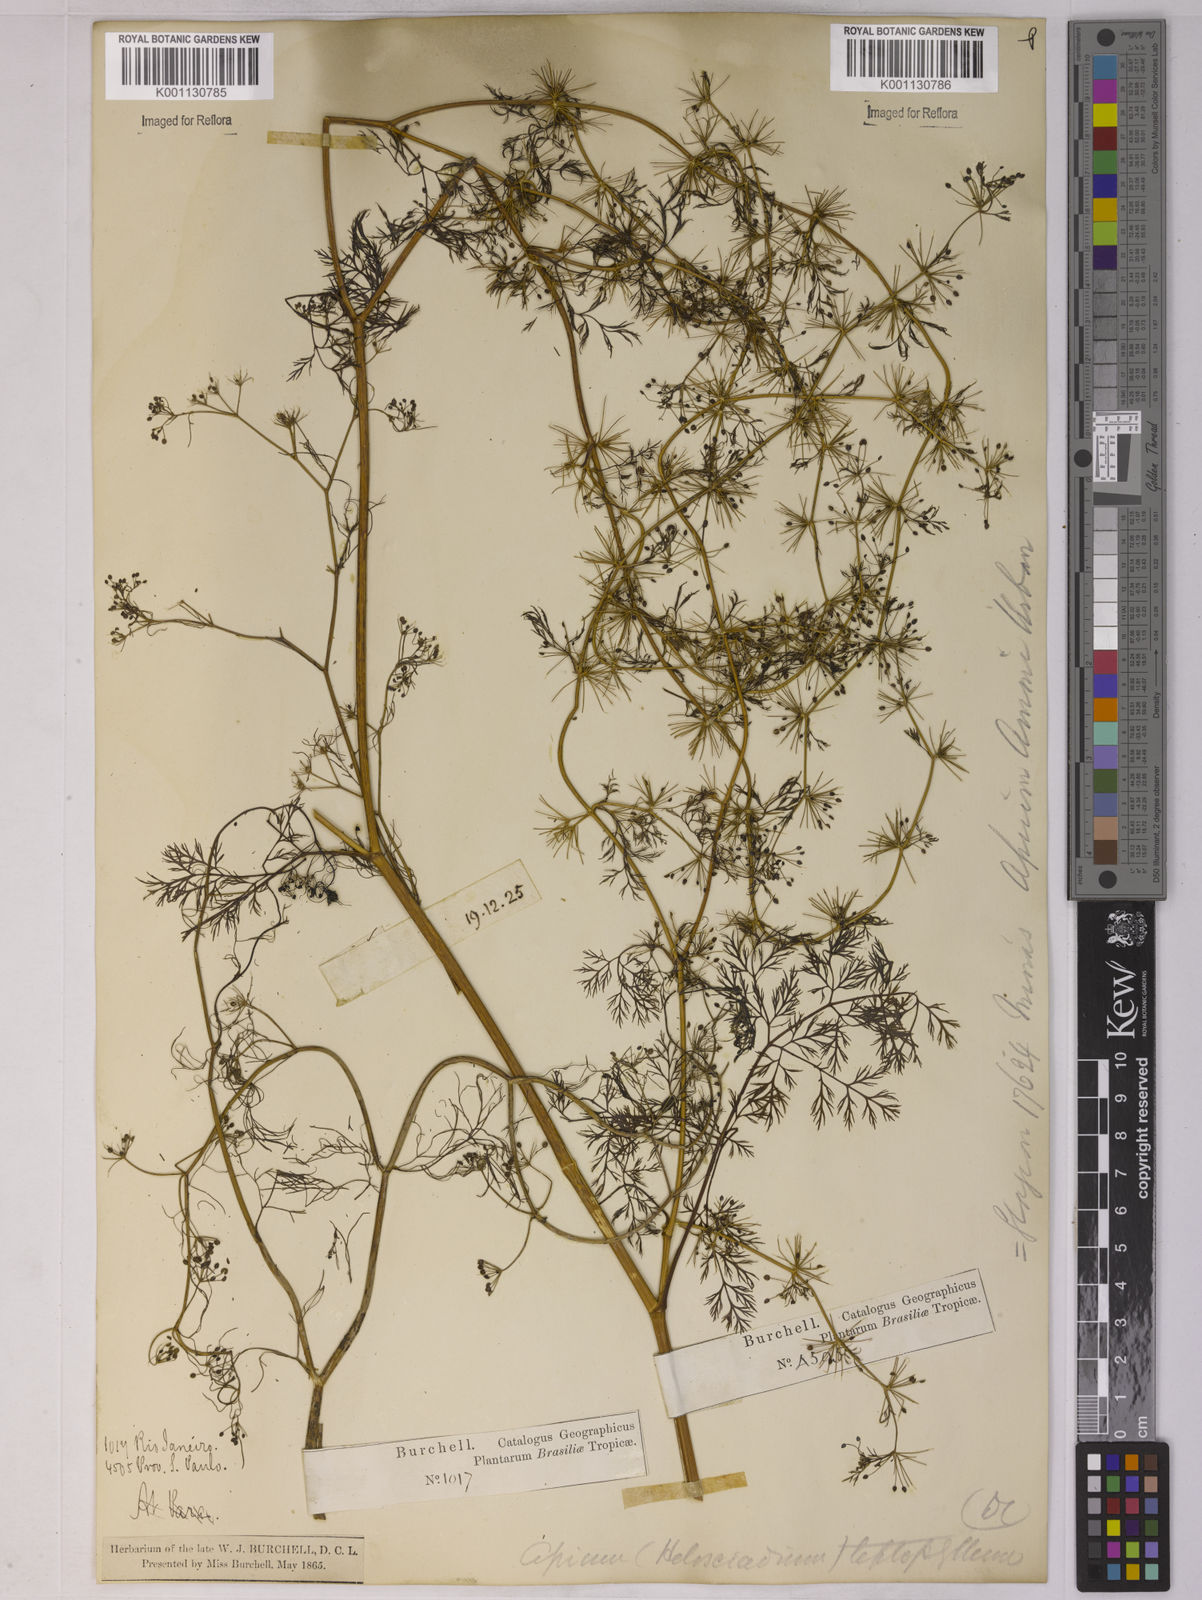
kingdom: Plantae
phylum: Tracheophyta
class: Magnoliopsida
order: Apiales
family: Apiaceae
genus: Apium
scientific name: Apium
